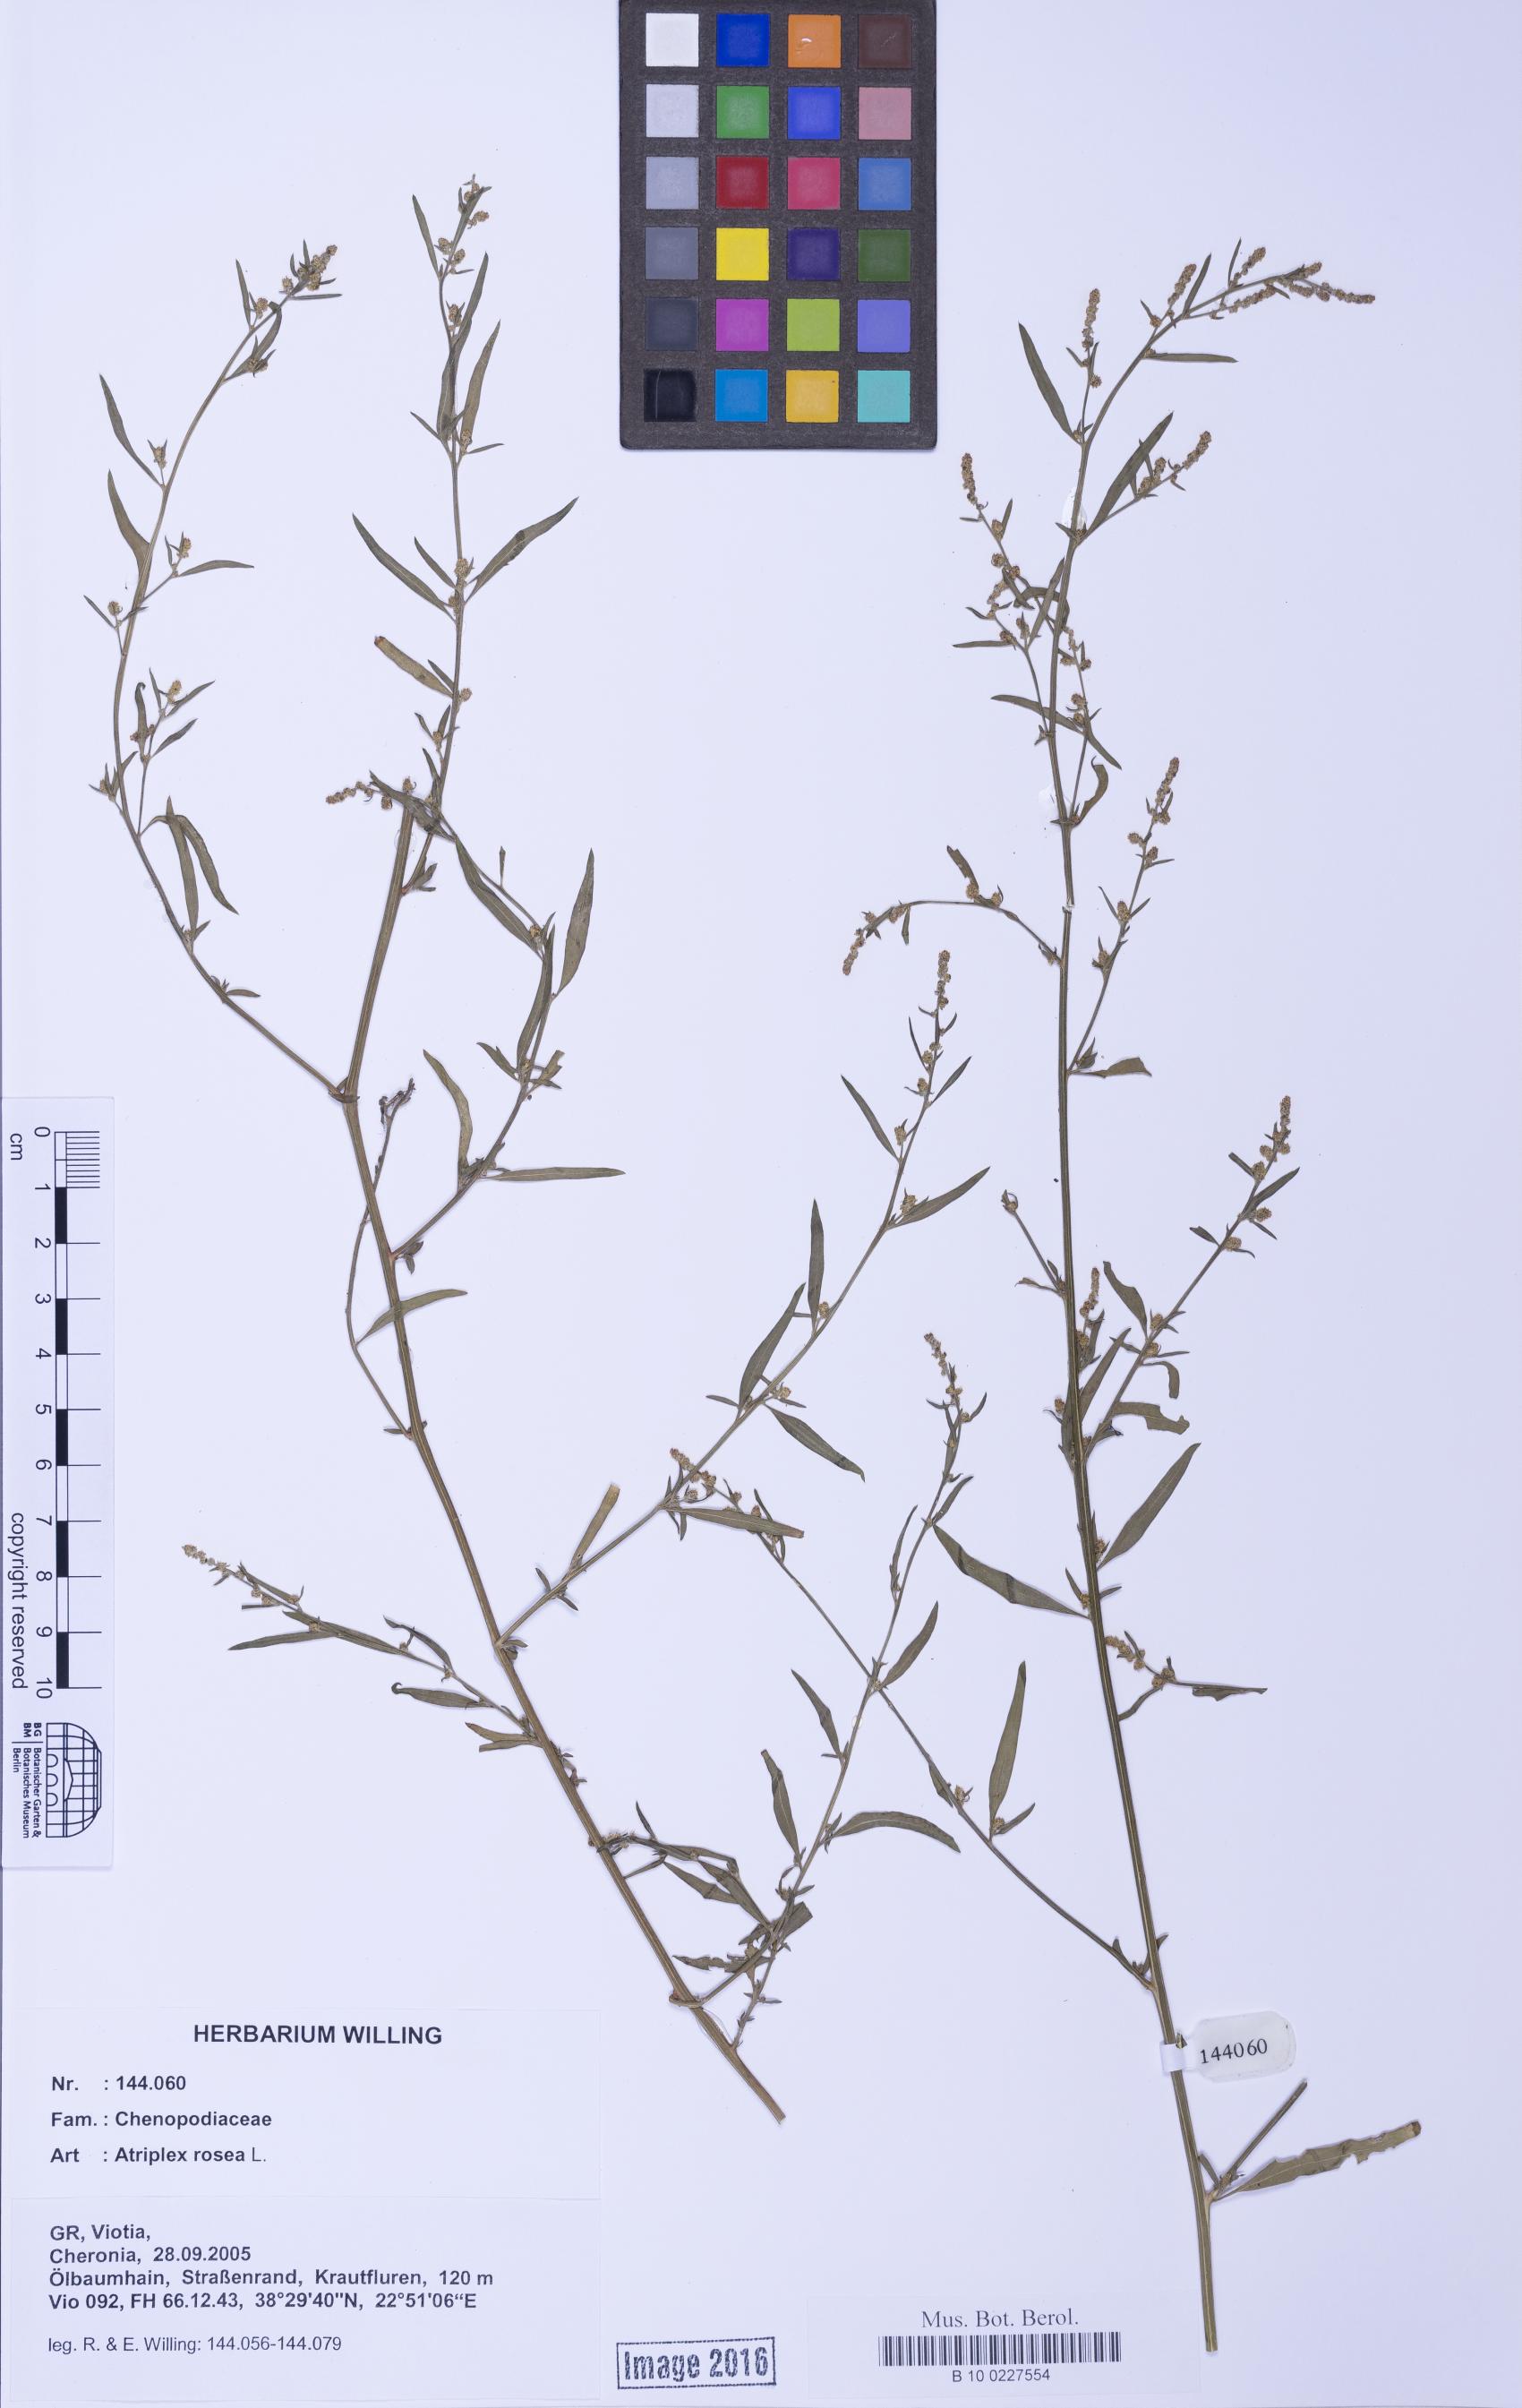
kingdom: Plantae
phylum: Tracheophyta
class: Magnoliopsida
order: Caryophyllales
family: Amaranthaceae
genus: Atriplex
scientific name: Atriplex rosea
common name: Tumbling saltweed
